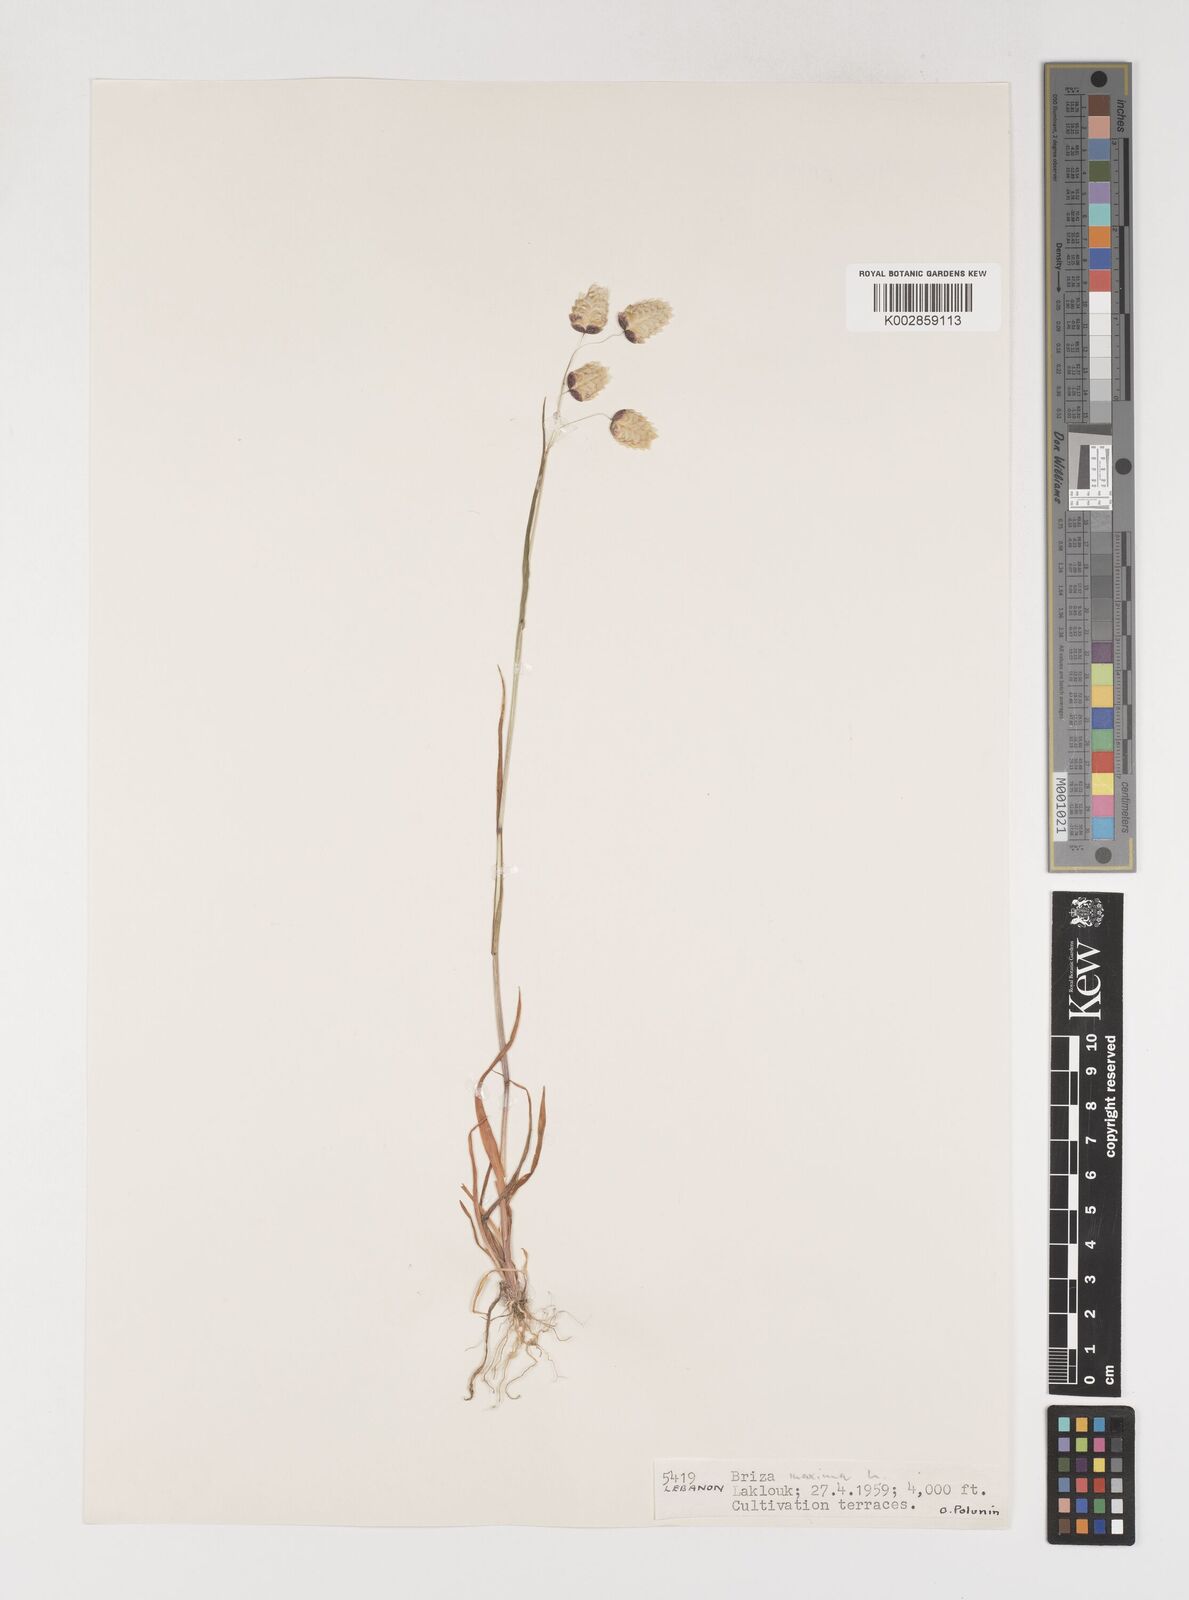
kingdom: Plantae
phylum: Tracheophyta
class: Liliopsida
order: Poales
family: Poaceae
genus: Briza
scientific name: Briza maxima
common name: Big quakinggrass
